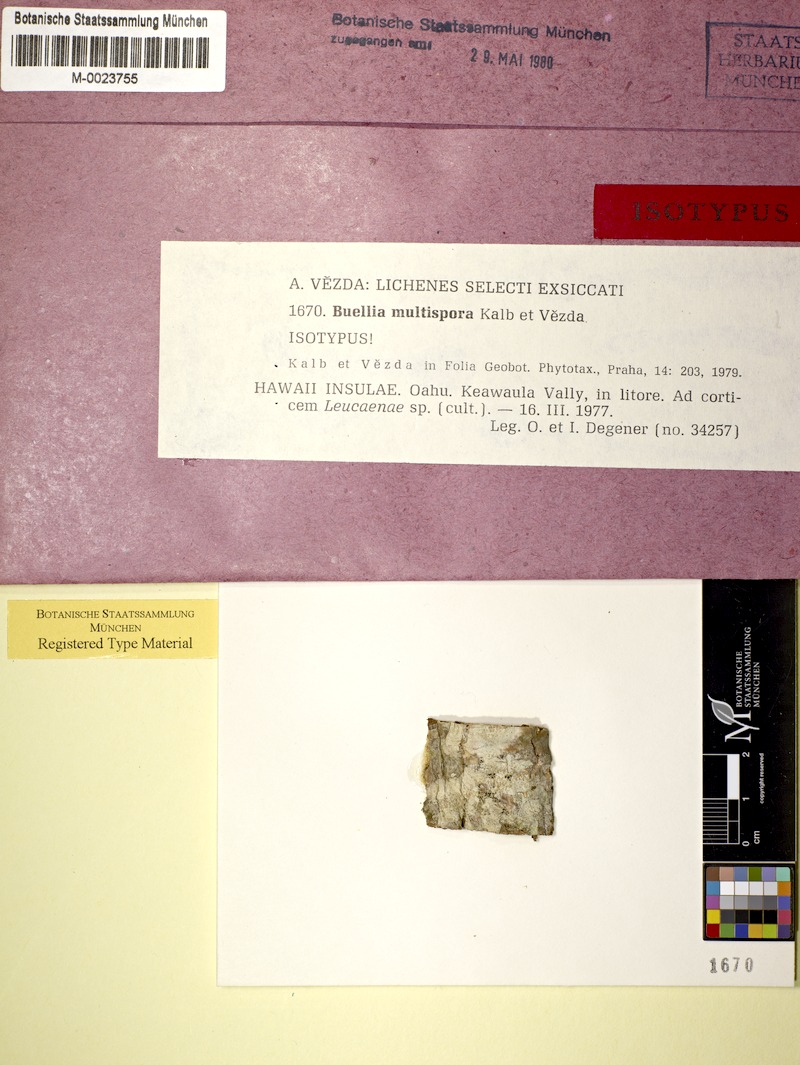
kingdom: Fungi
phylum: Ascomycota
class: Lecanoromycetes
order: Caliciales
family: Caliciaceae
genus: Buellia
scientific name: Buellia multispora
